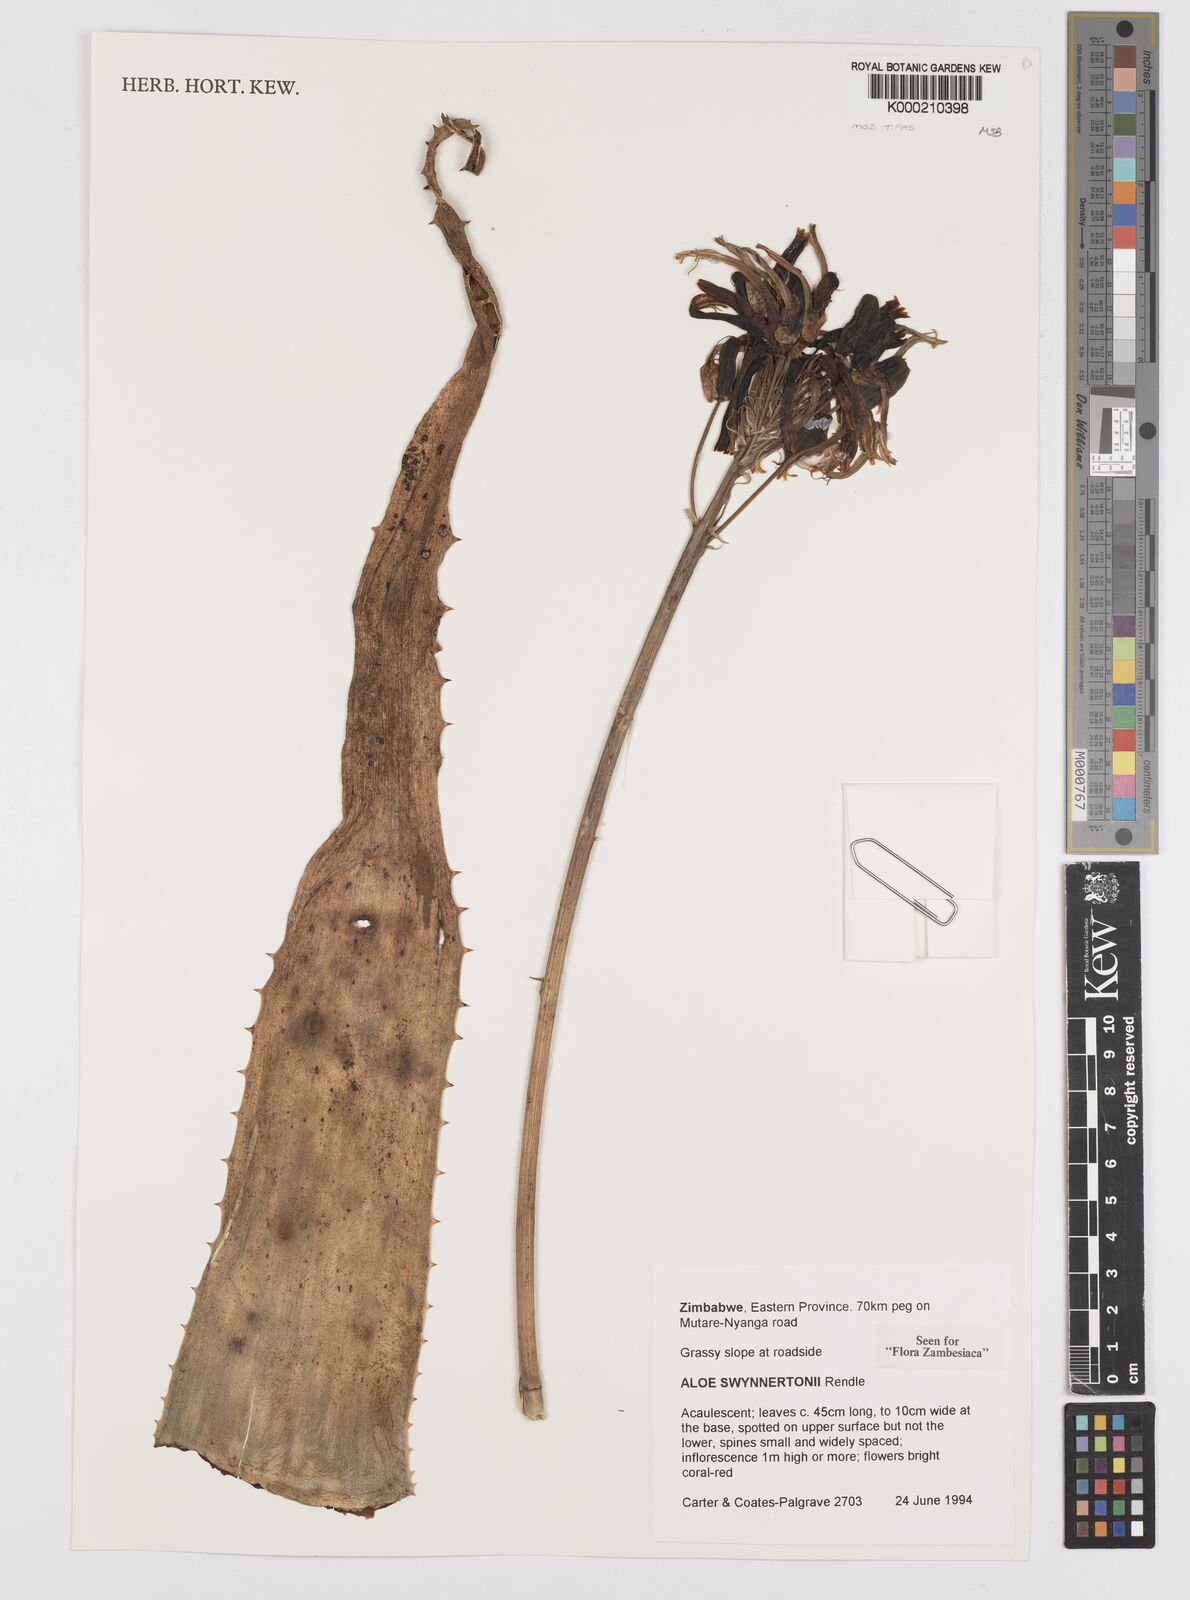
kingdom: Plantae
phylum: Tracheophyta
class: Liliopsida
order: Asparagales
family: Asphodelaceae
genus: Aloe
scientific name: Aloe swynnertonii
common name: Swynnerton's aloe
